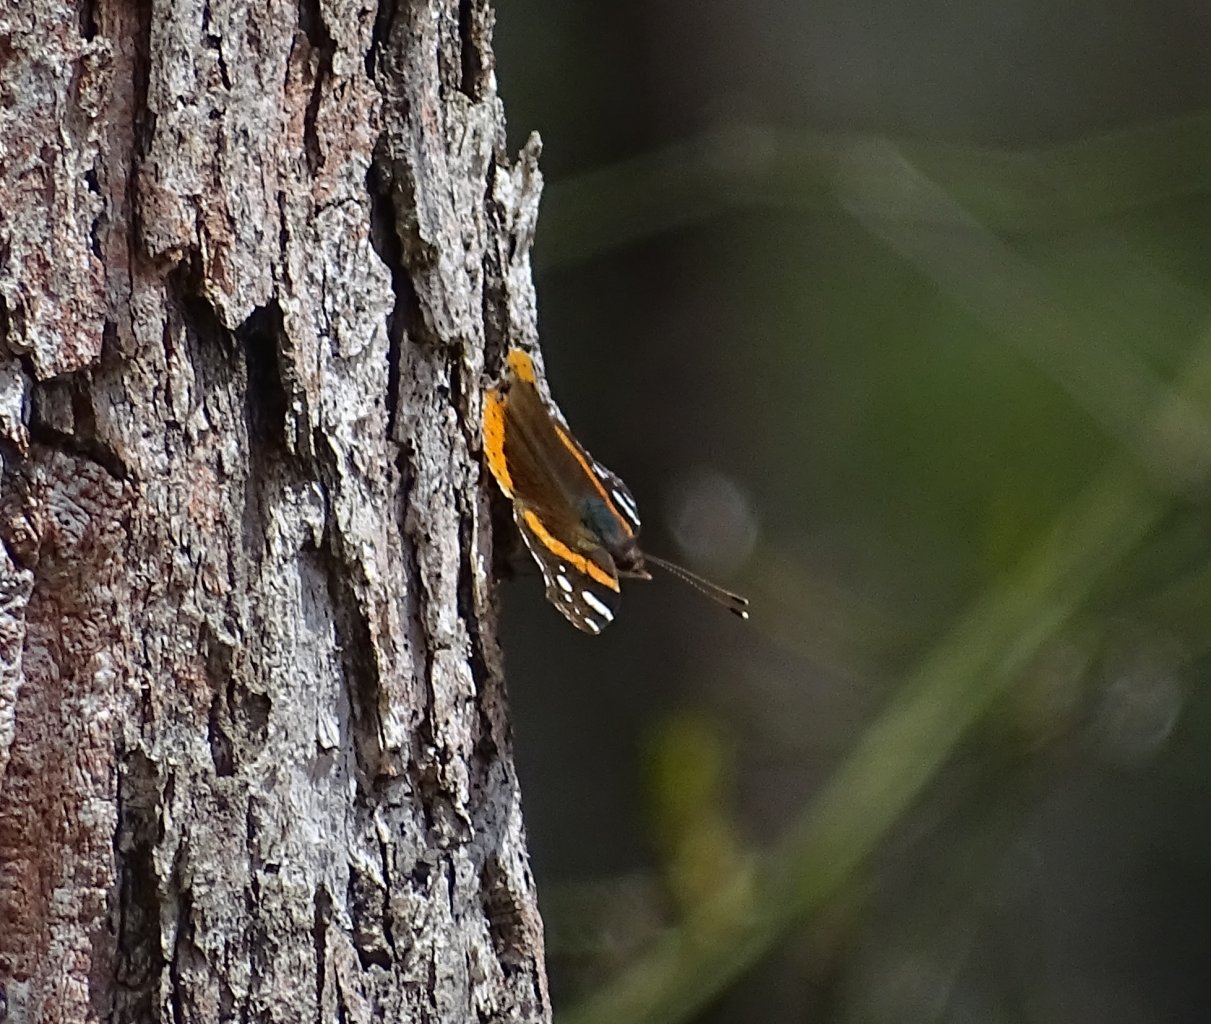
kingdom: Animalia
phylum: Arthropoda
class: Insecta
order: Lepidoptera
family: Nymphalidae
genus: Vanessa
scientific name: Vanessa atalanta
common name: Red Admiral
